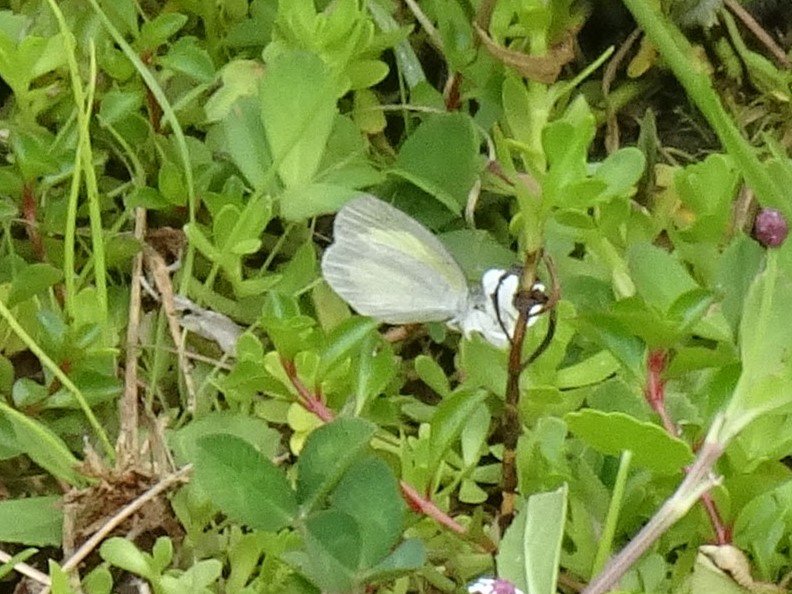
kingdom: Animalia
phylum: Arthropoda
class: Insecta
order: Lepidoptera
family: Pieridae
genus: Eurema
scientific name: Eurema daira
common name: Barred Yellow
